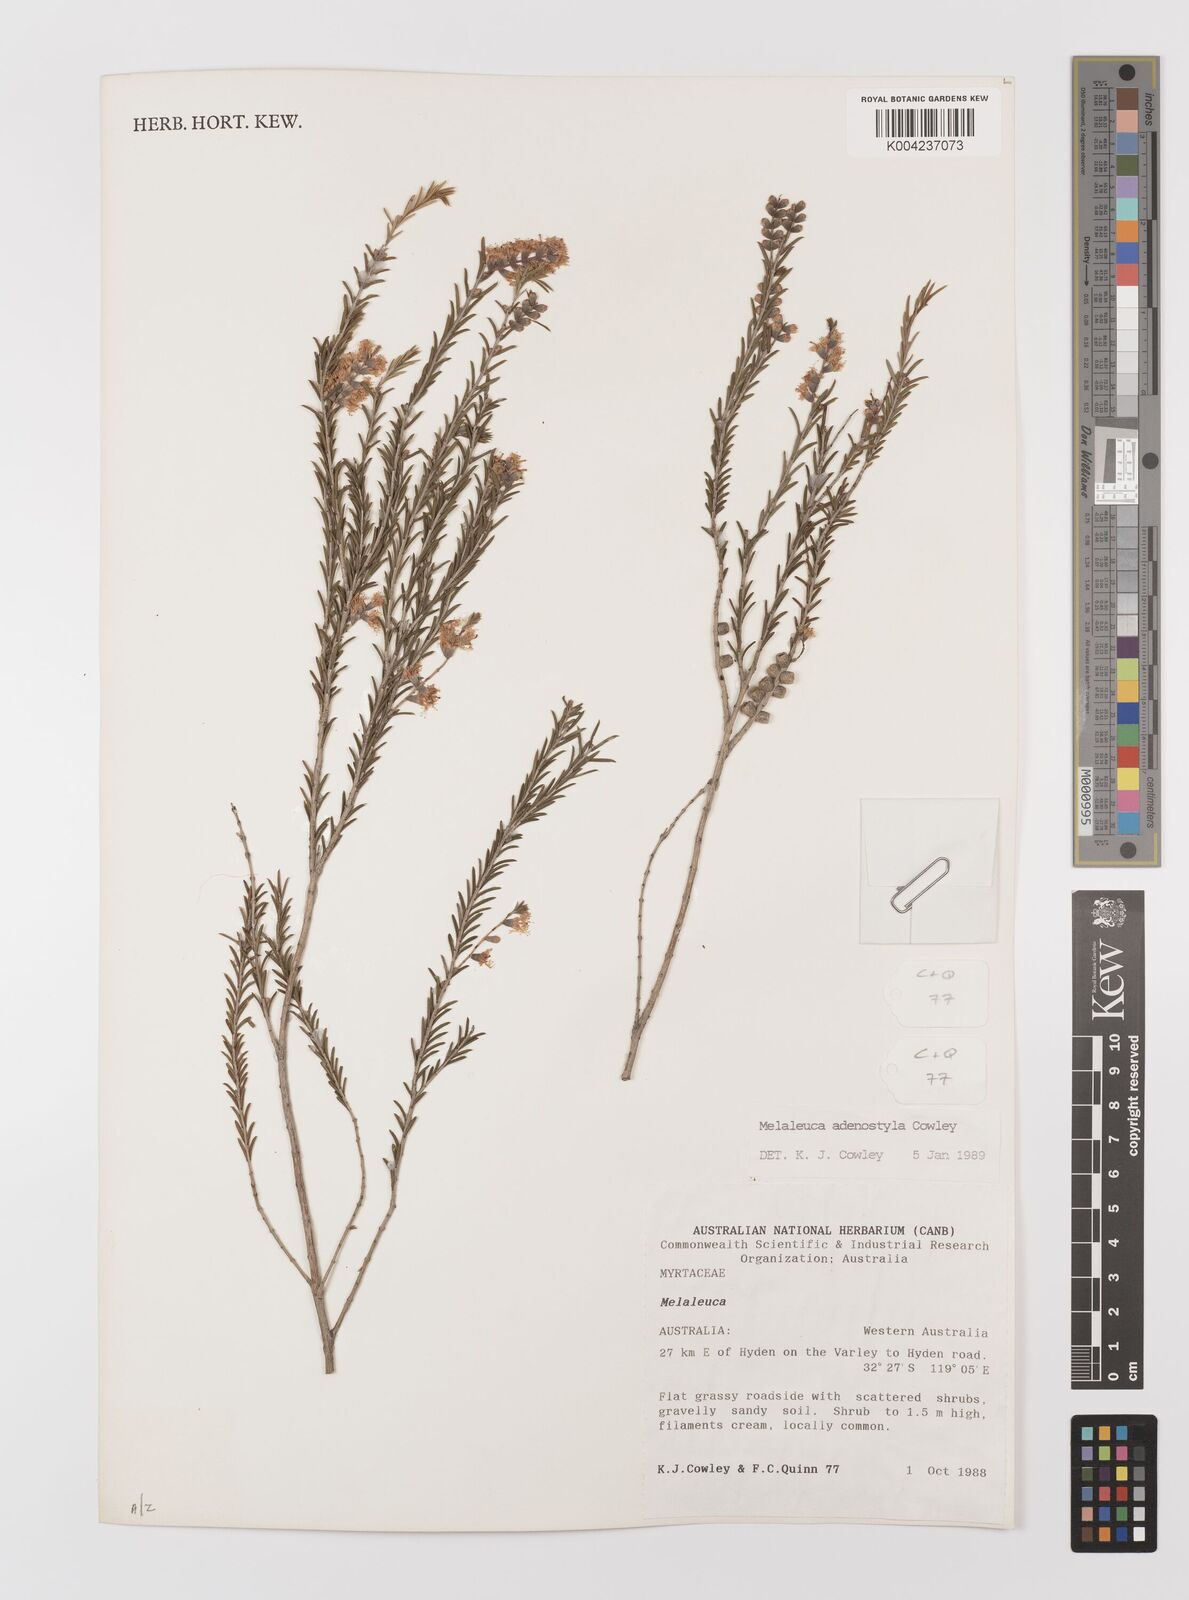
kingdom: Plantae
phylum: Tracheophyta
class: Magnoliopsida
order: Myrtales
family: Myrtaceae
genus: Melaleuca
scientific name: Melaleuca adenostyla
